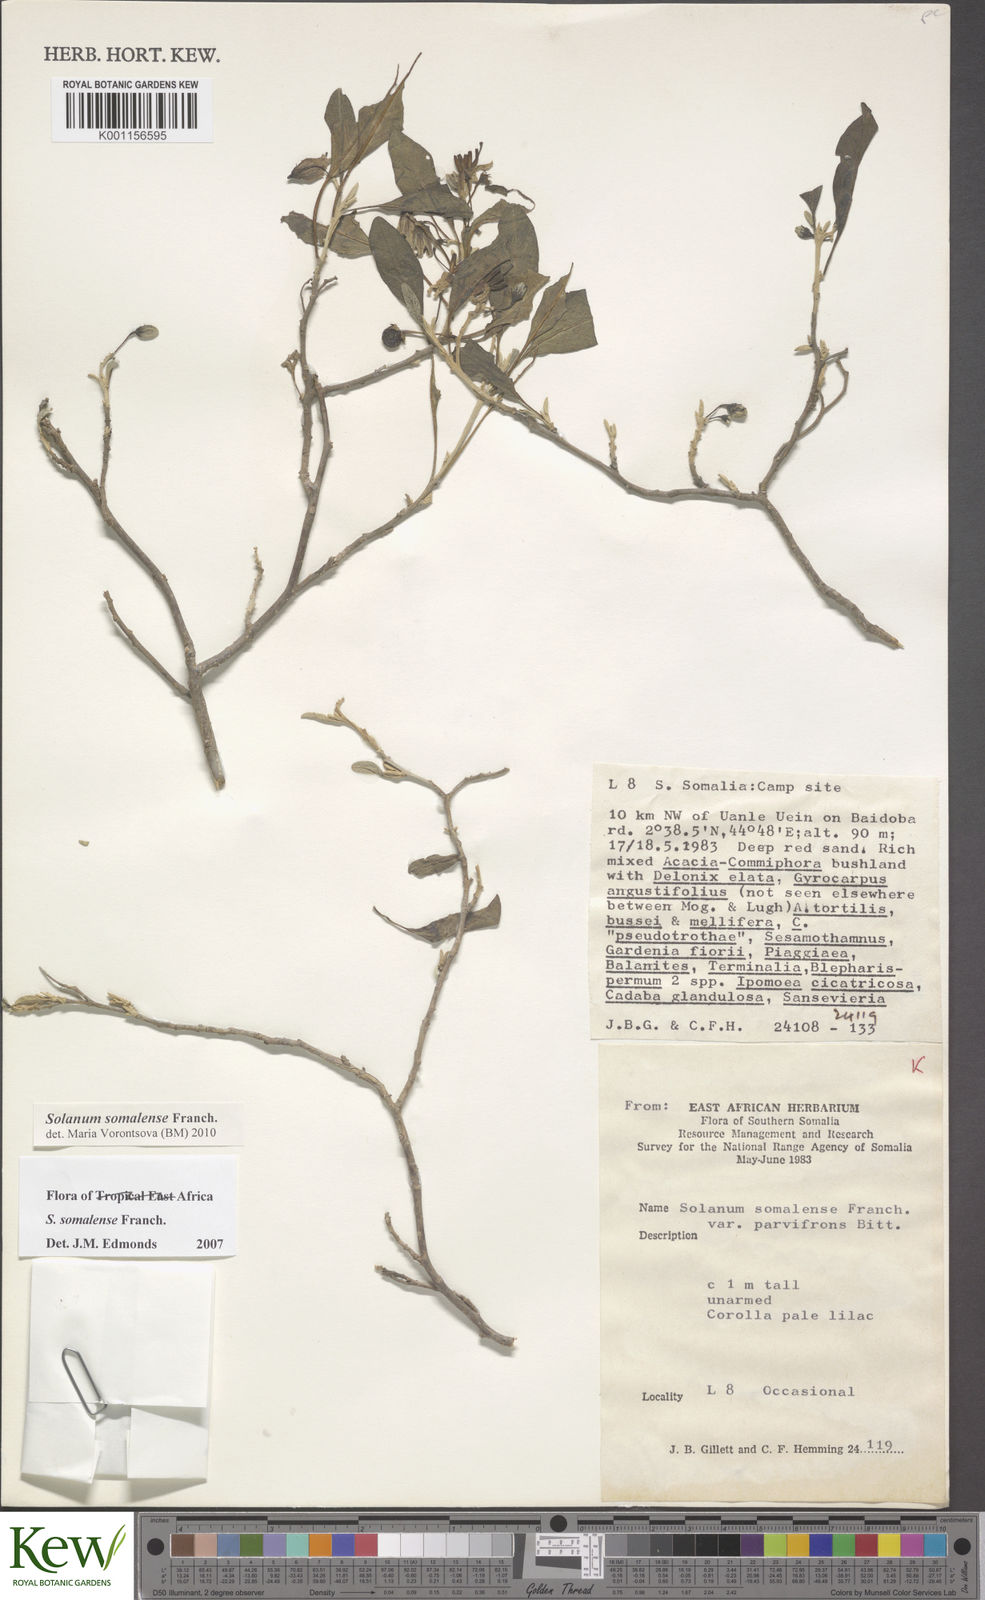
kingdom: Plantae
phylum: Tracheophyta
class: Magnoliopsida
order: Solanales
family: Solanaceae
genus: Solanum
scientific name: Solanum somalense
